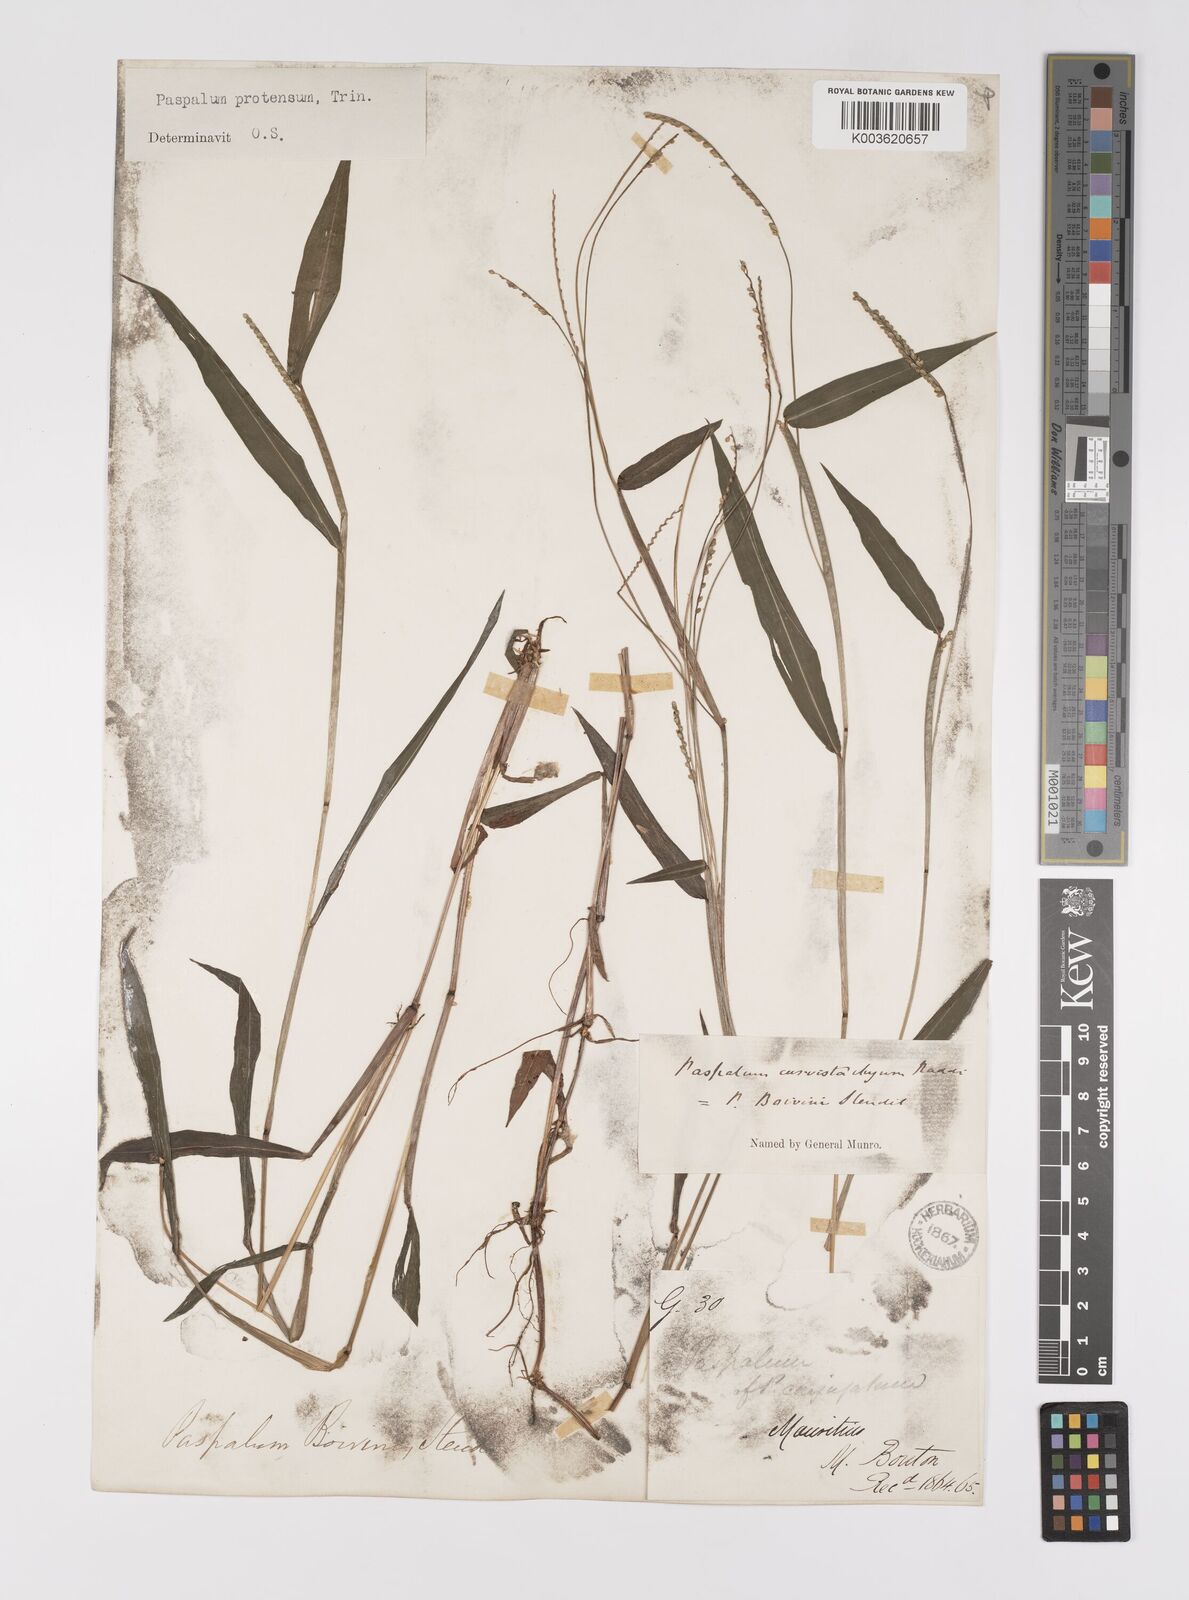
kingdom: Plantae
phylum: Tracheophyta
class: Liliopsida
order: Poales
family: Poaceae
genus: Paspalum
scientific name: Paspalum nutans
